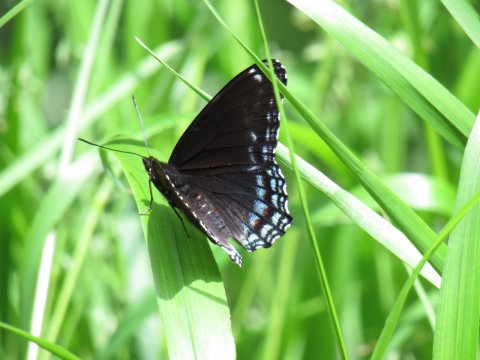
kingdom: Animalia
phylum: Arthropoda
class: Insecta
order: Lepidoptera
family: Nymphalidae
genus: Limenitis
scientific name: Limenitis arthemis
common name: Red-spotted Admiral
